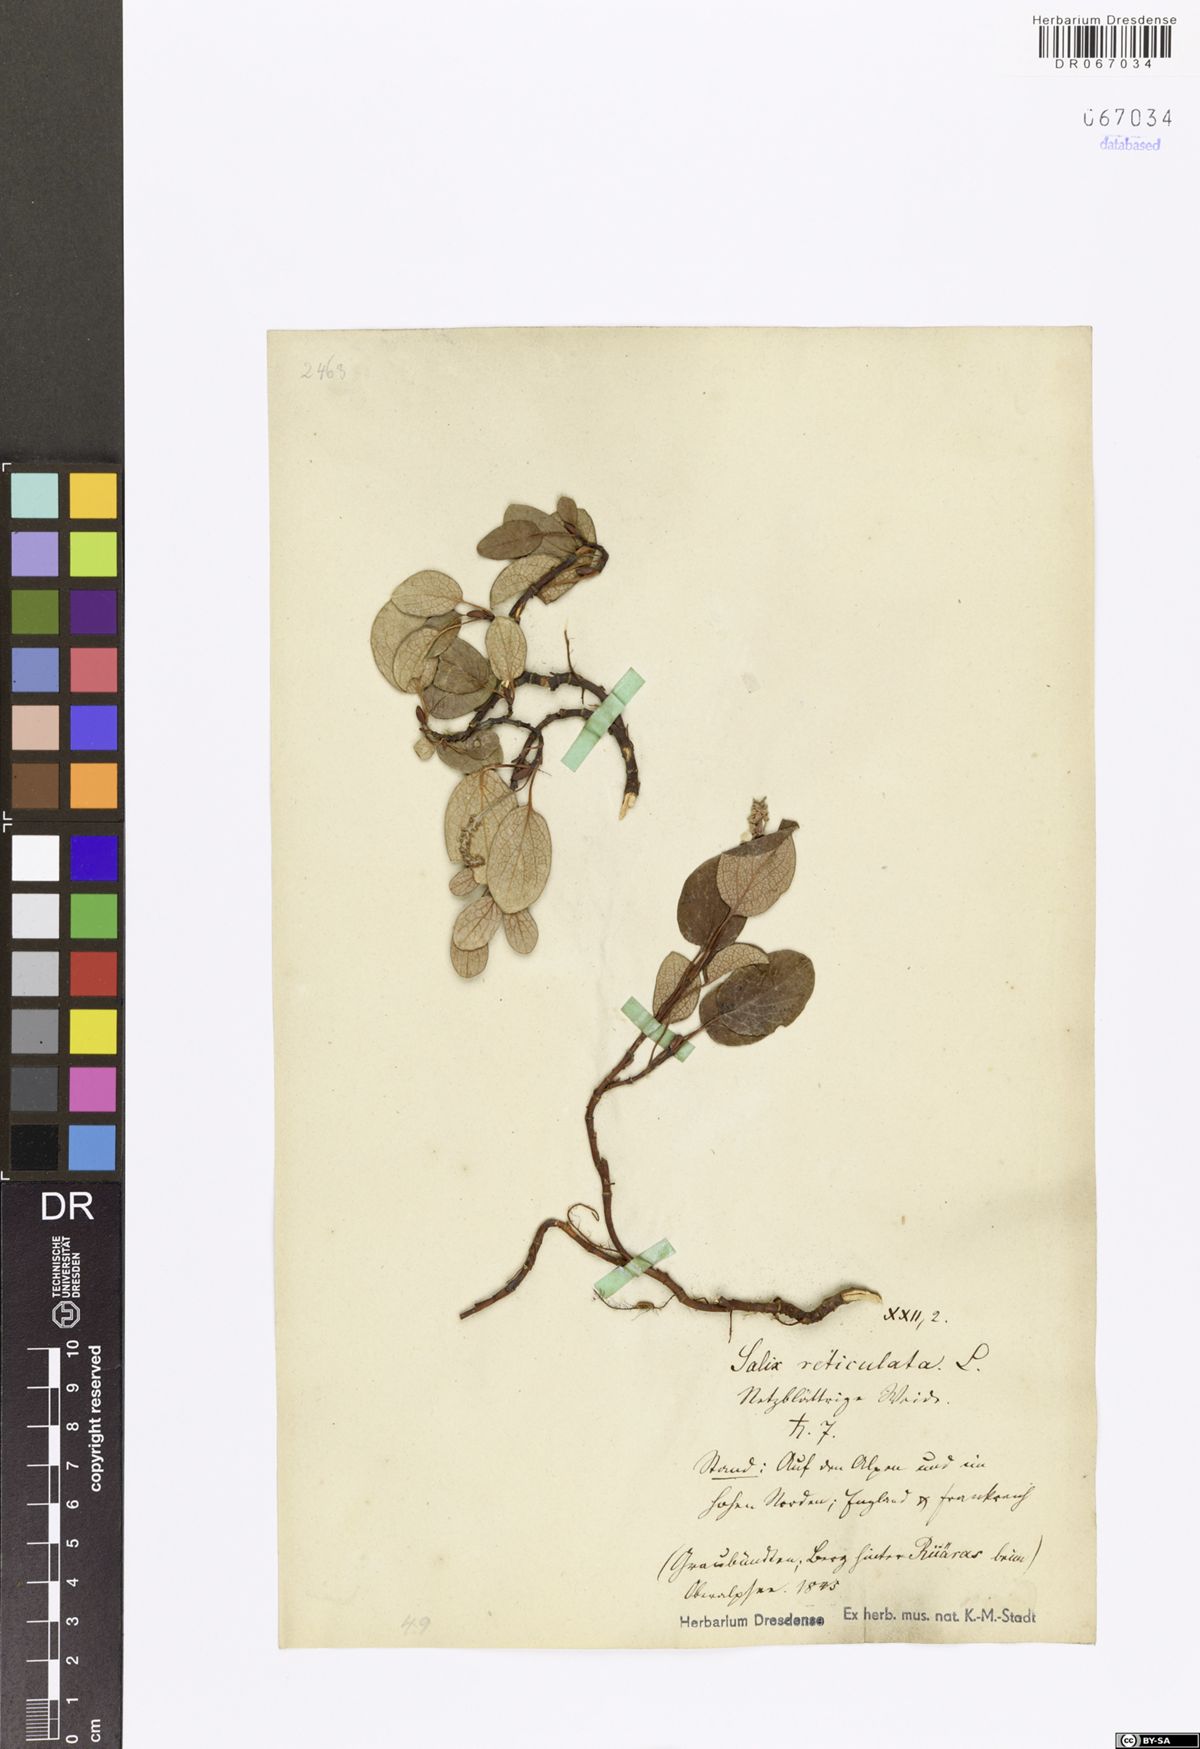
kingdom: Plantae
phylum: Tracheophyta
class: Magnoliopsida
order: Malpighiales
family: Salicaceae
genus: Salix
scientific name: Salix reticulata
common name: Net-leaved willow
